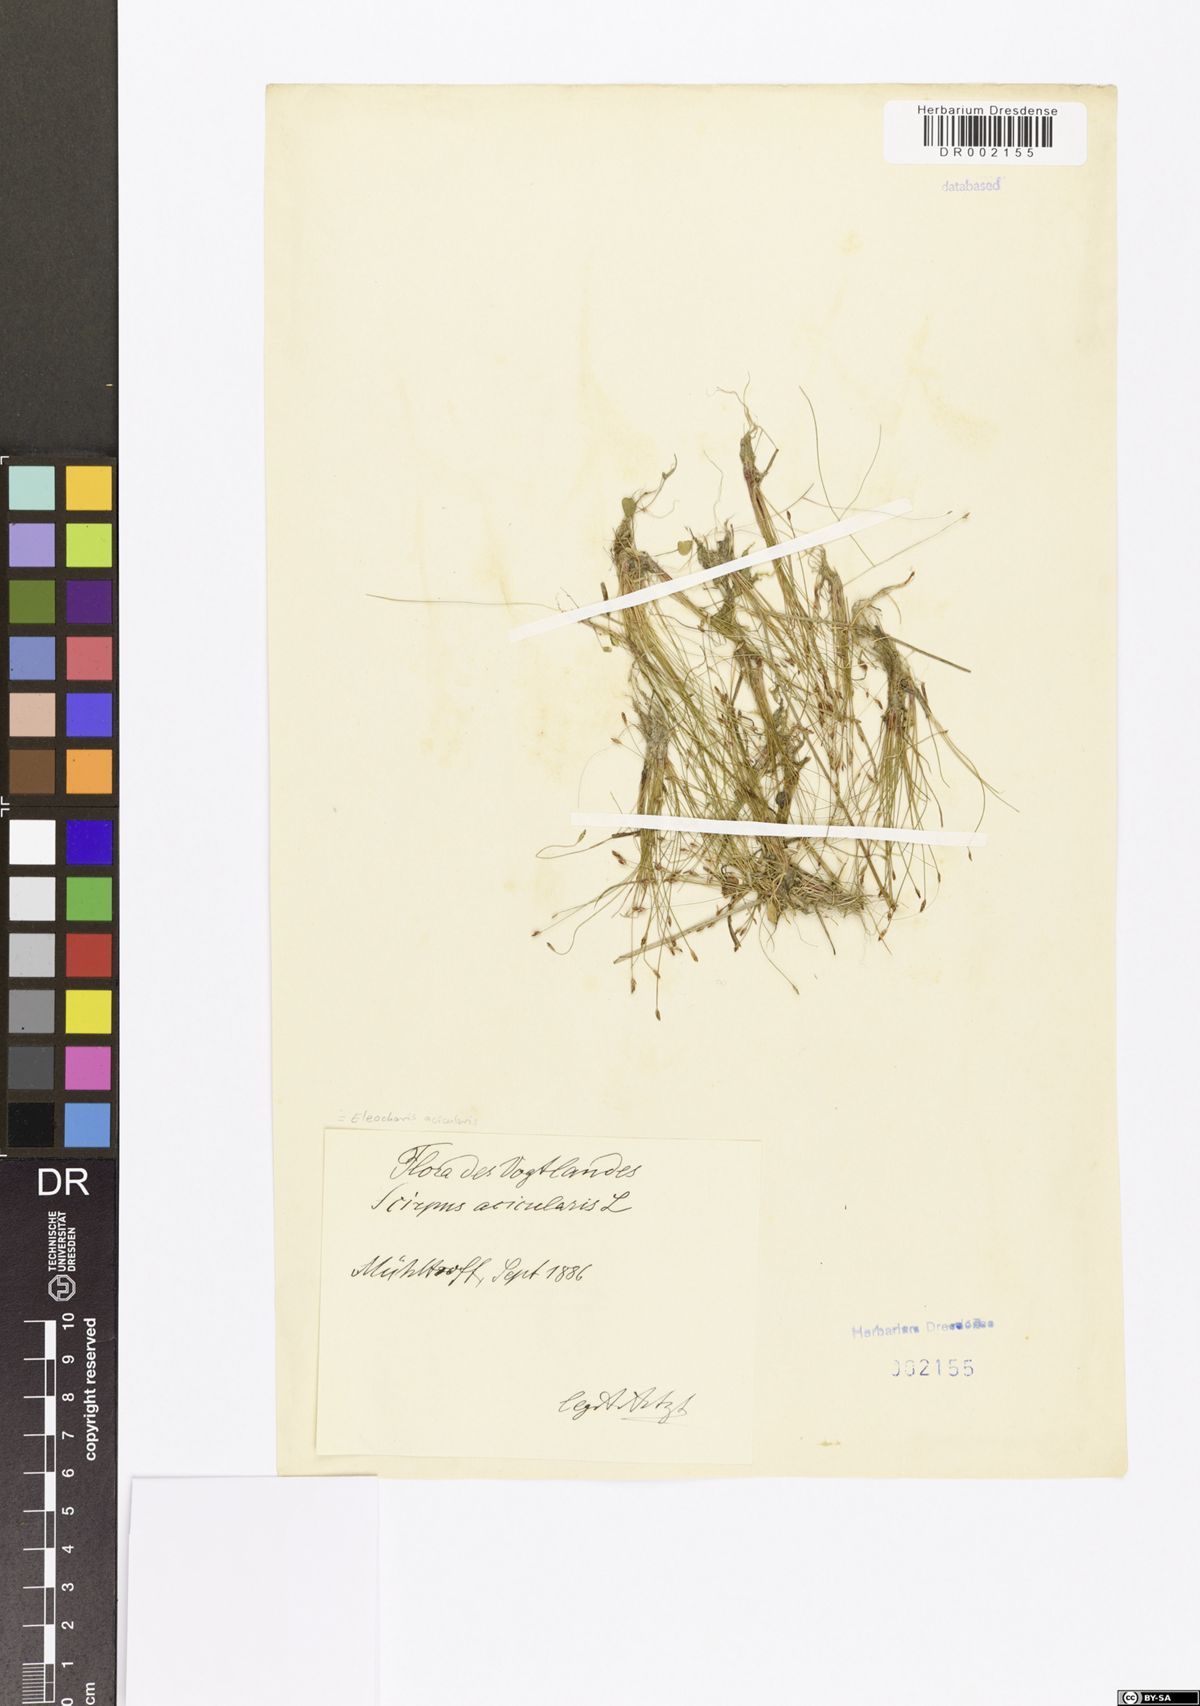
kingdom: Plantae
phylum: Tracheophyta
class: Liliopsida
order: Poales
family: Cyperaceae
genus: Eleocharis
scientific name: Eleocharis acicularis
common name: Needle spike-rush
